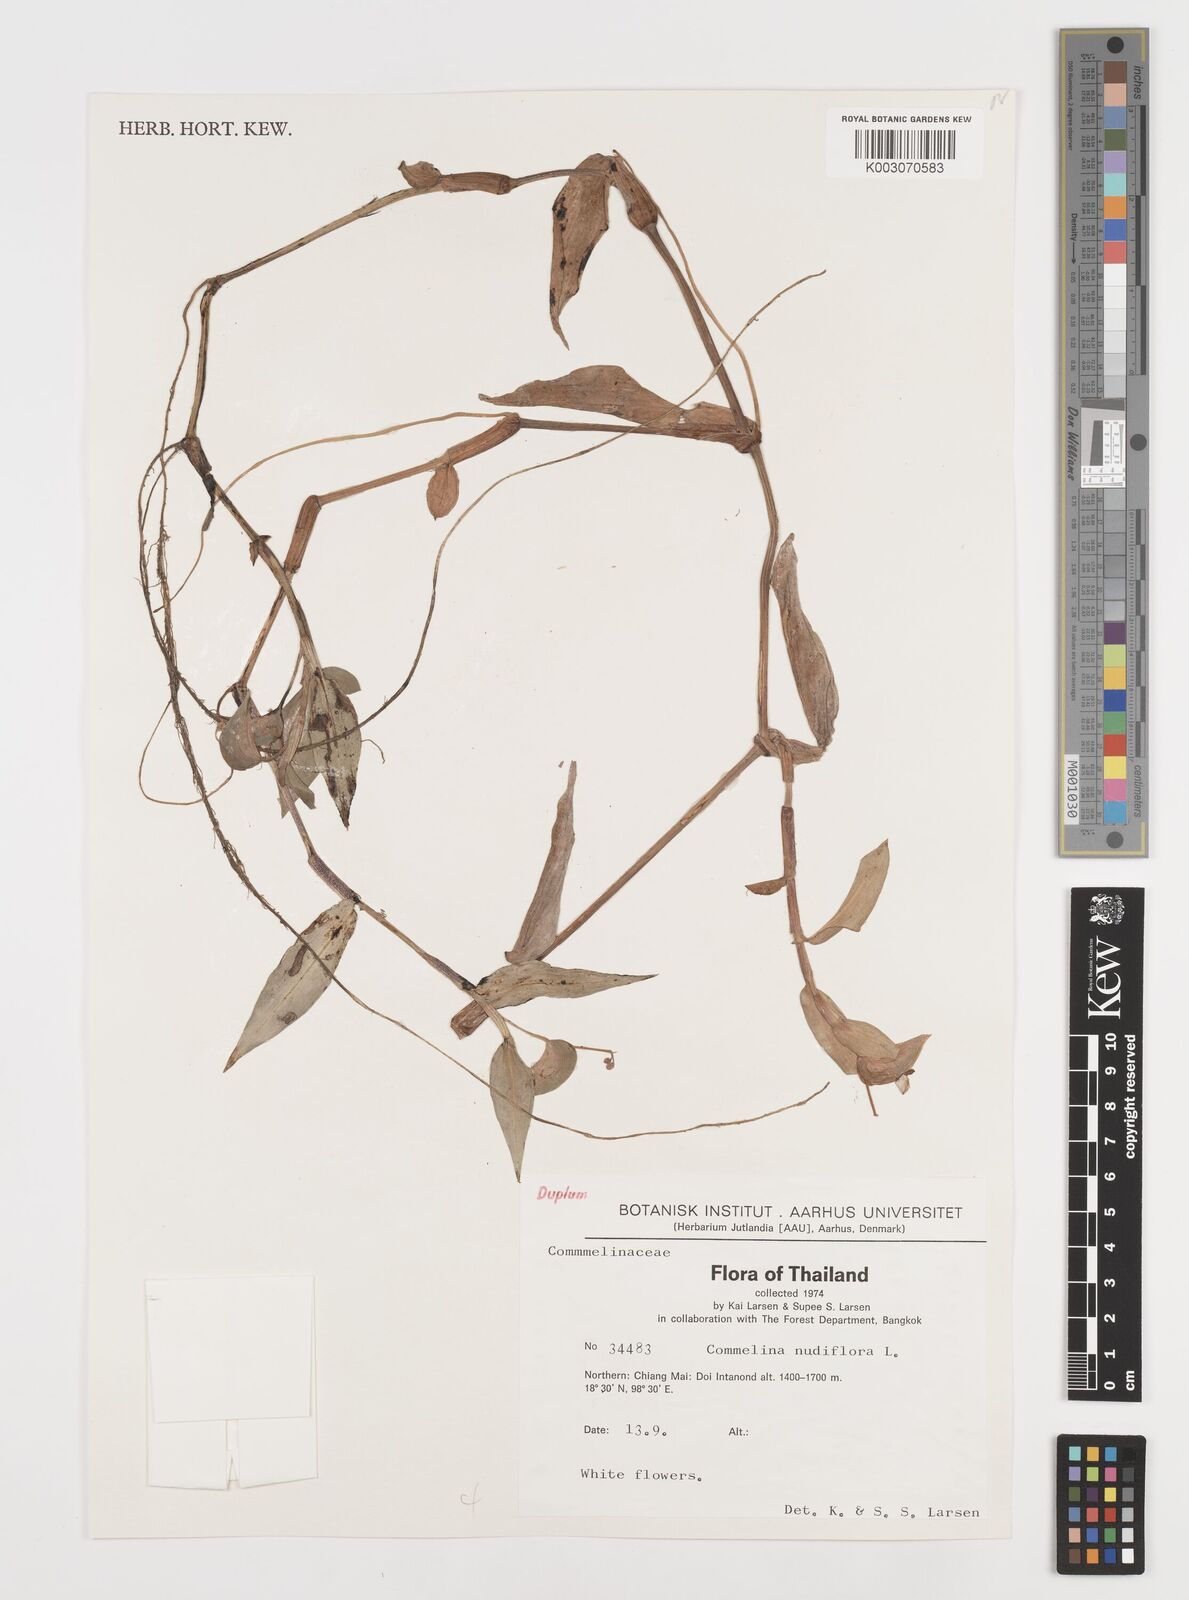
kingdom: Plantae
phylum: Tracheophyta
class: Liliopsida
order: Commelinales
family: Commelinaceae
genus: Commelina
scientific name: Commelina clavata
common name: Willow leaved dayflower
